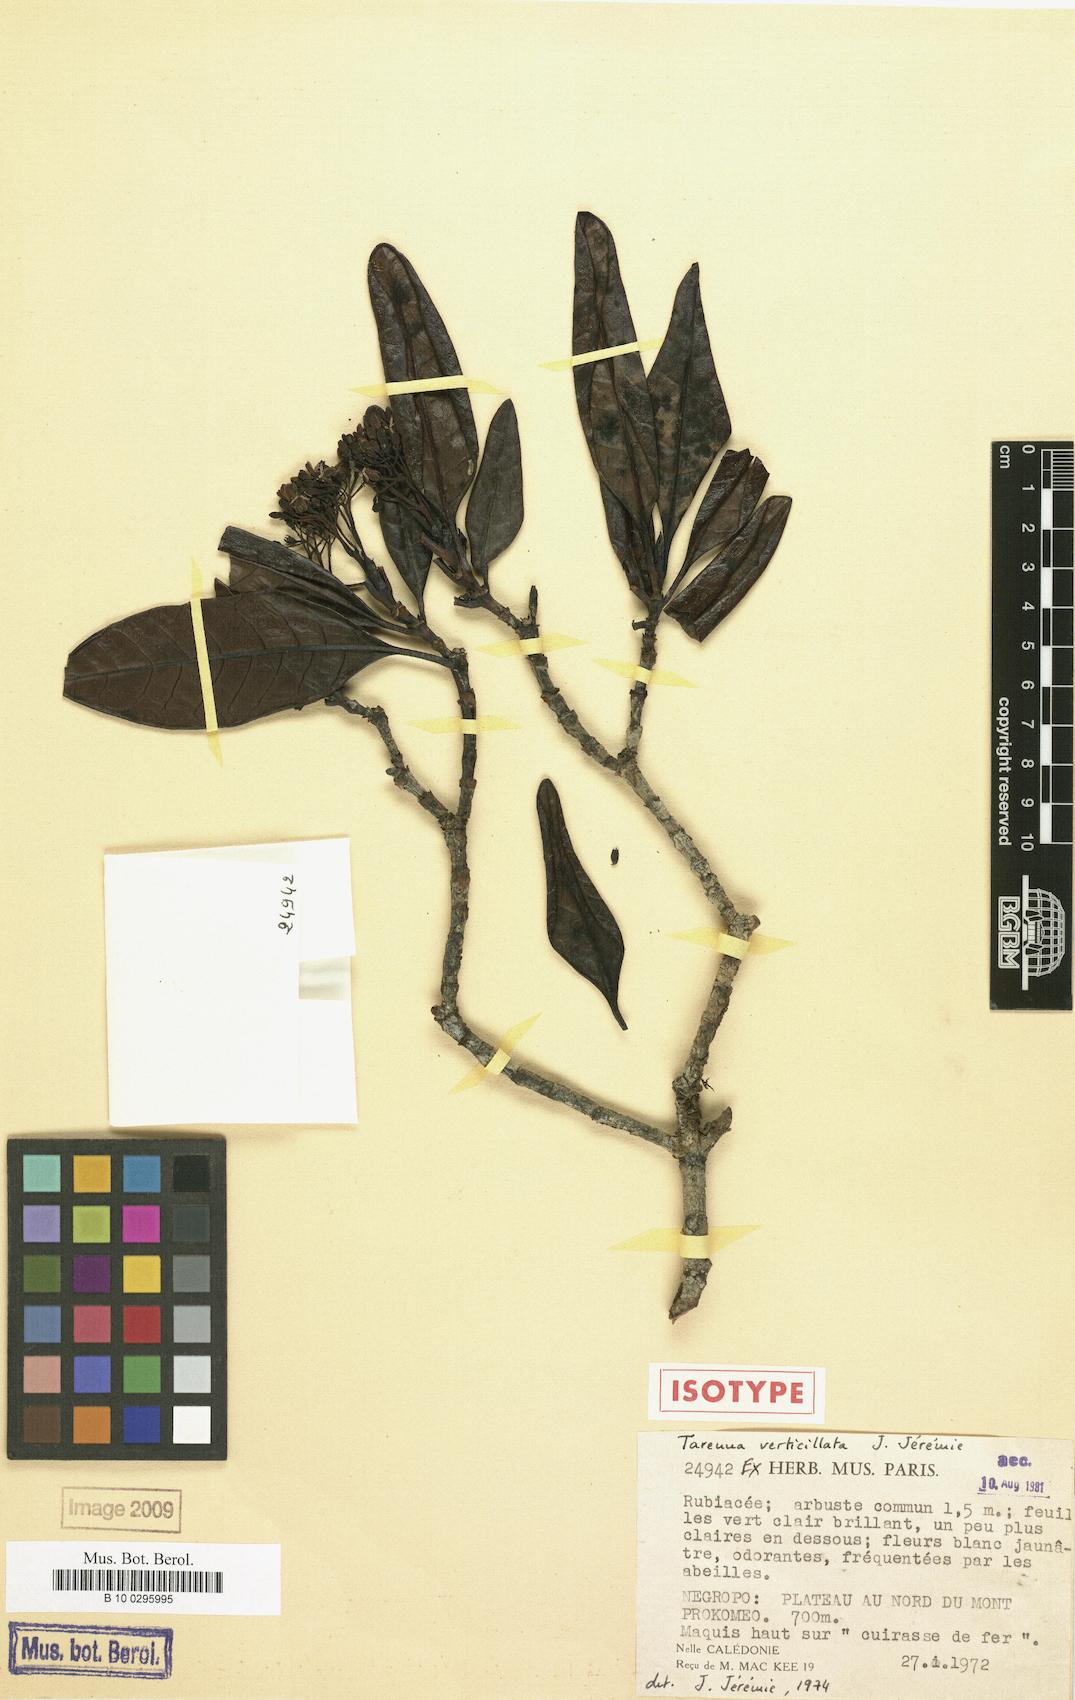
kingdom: Plantae
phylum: Tracheophyta
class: Magnoliopsida
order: Gentianales
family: Rubiaceae
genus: Tarenna
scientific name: Tarenna verticillata
